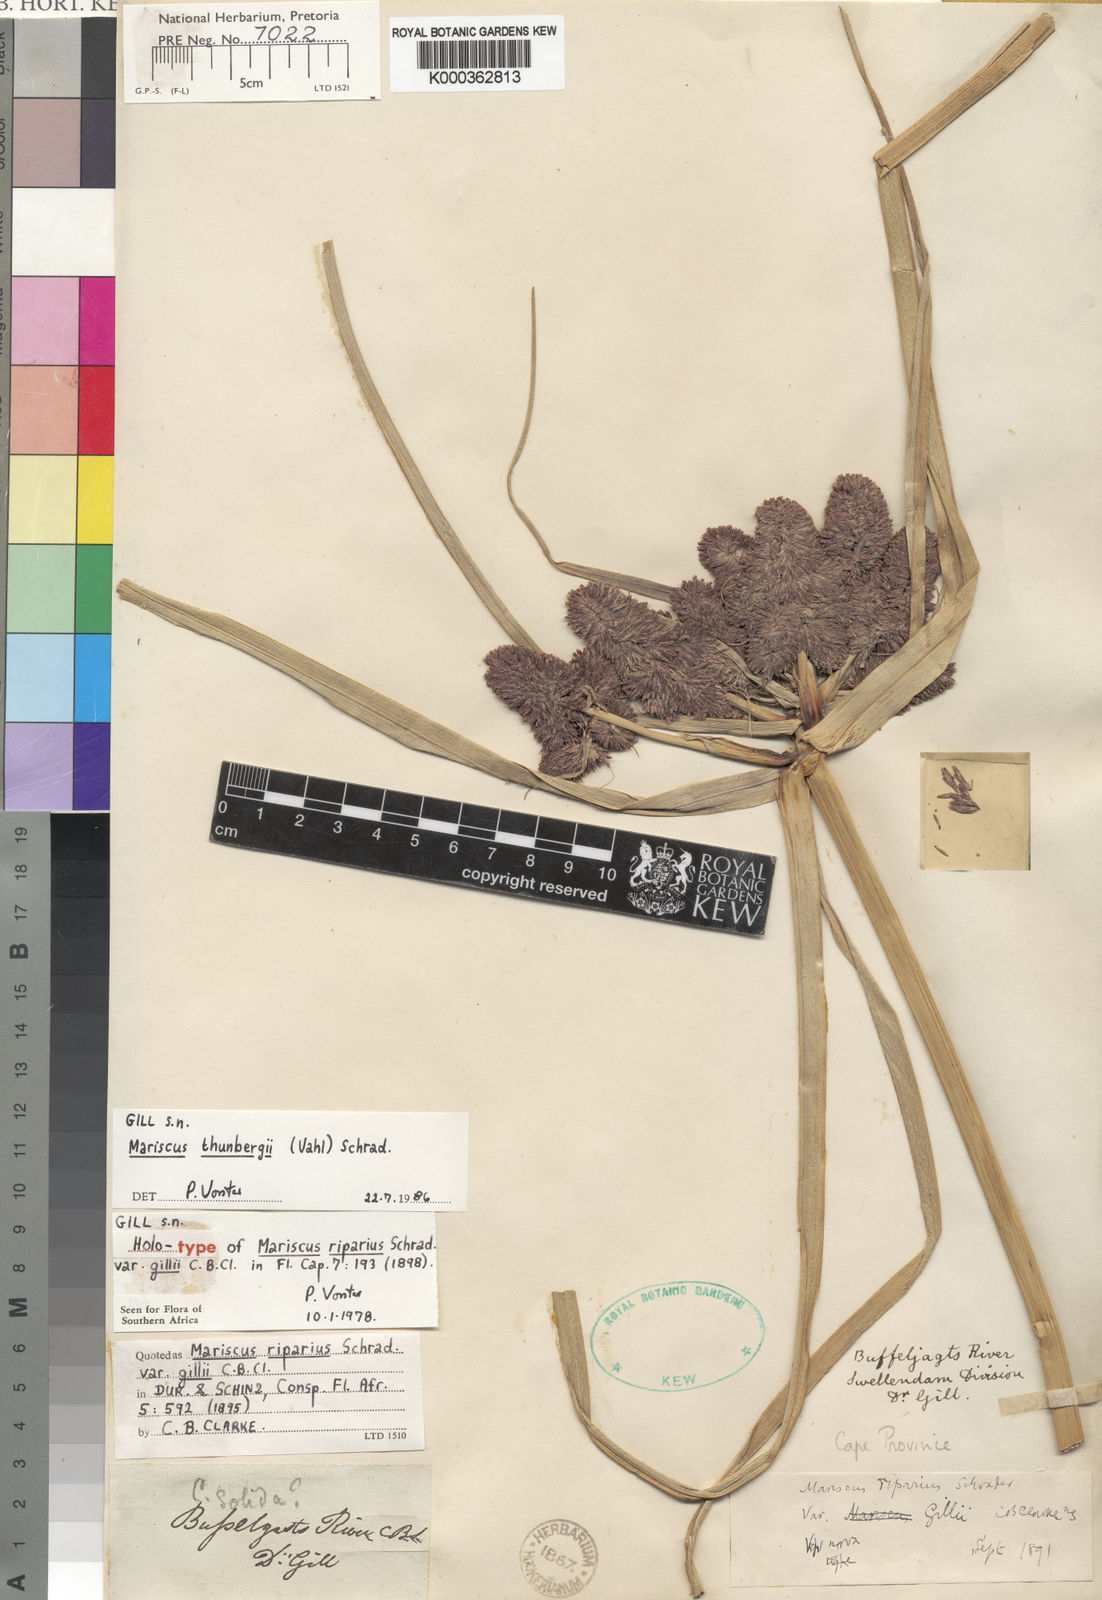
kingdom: Plantae
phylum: Tracheophyta
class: Liliopsida
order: Poales
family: Cyperaceae
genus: Cyperus
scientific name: Cyperus solidus
